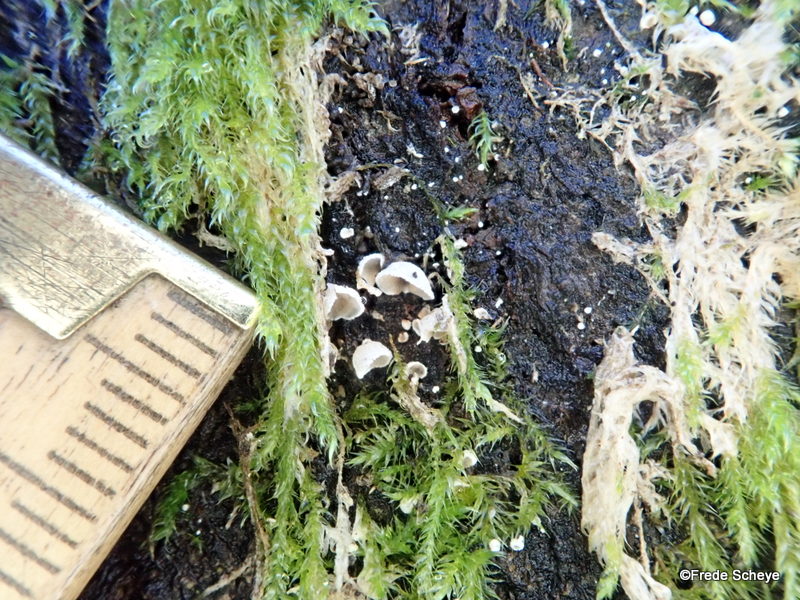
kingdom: Fungi
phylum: Basidiomycota
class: Agaricomycetes
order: Agaricales
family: Chromocyphellaceae
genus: Chromocyphella
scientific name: Chromocyphella muscicola
